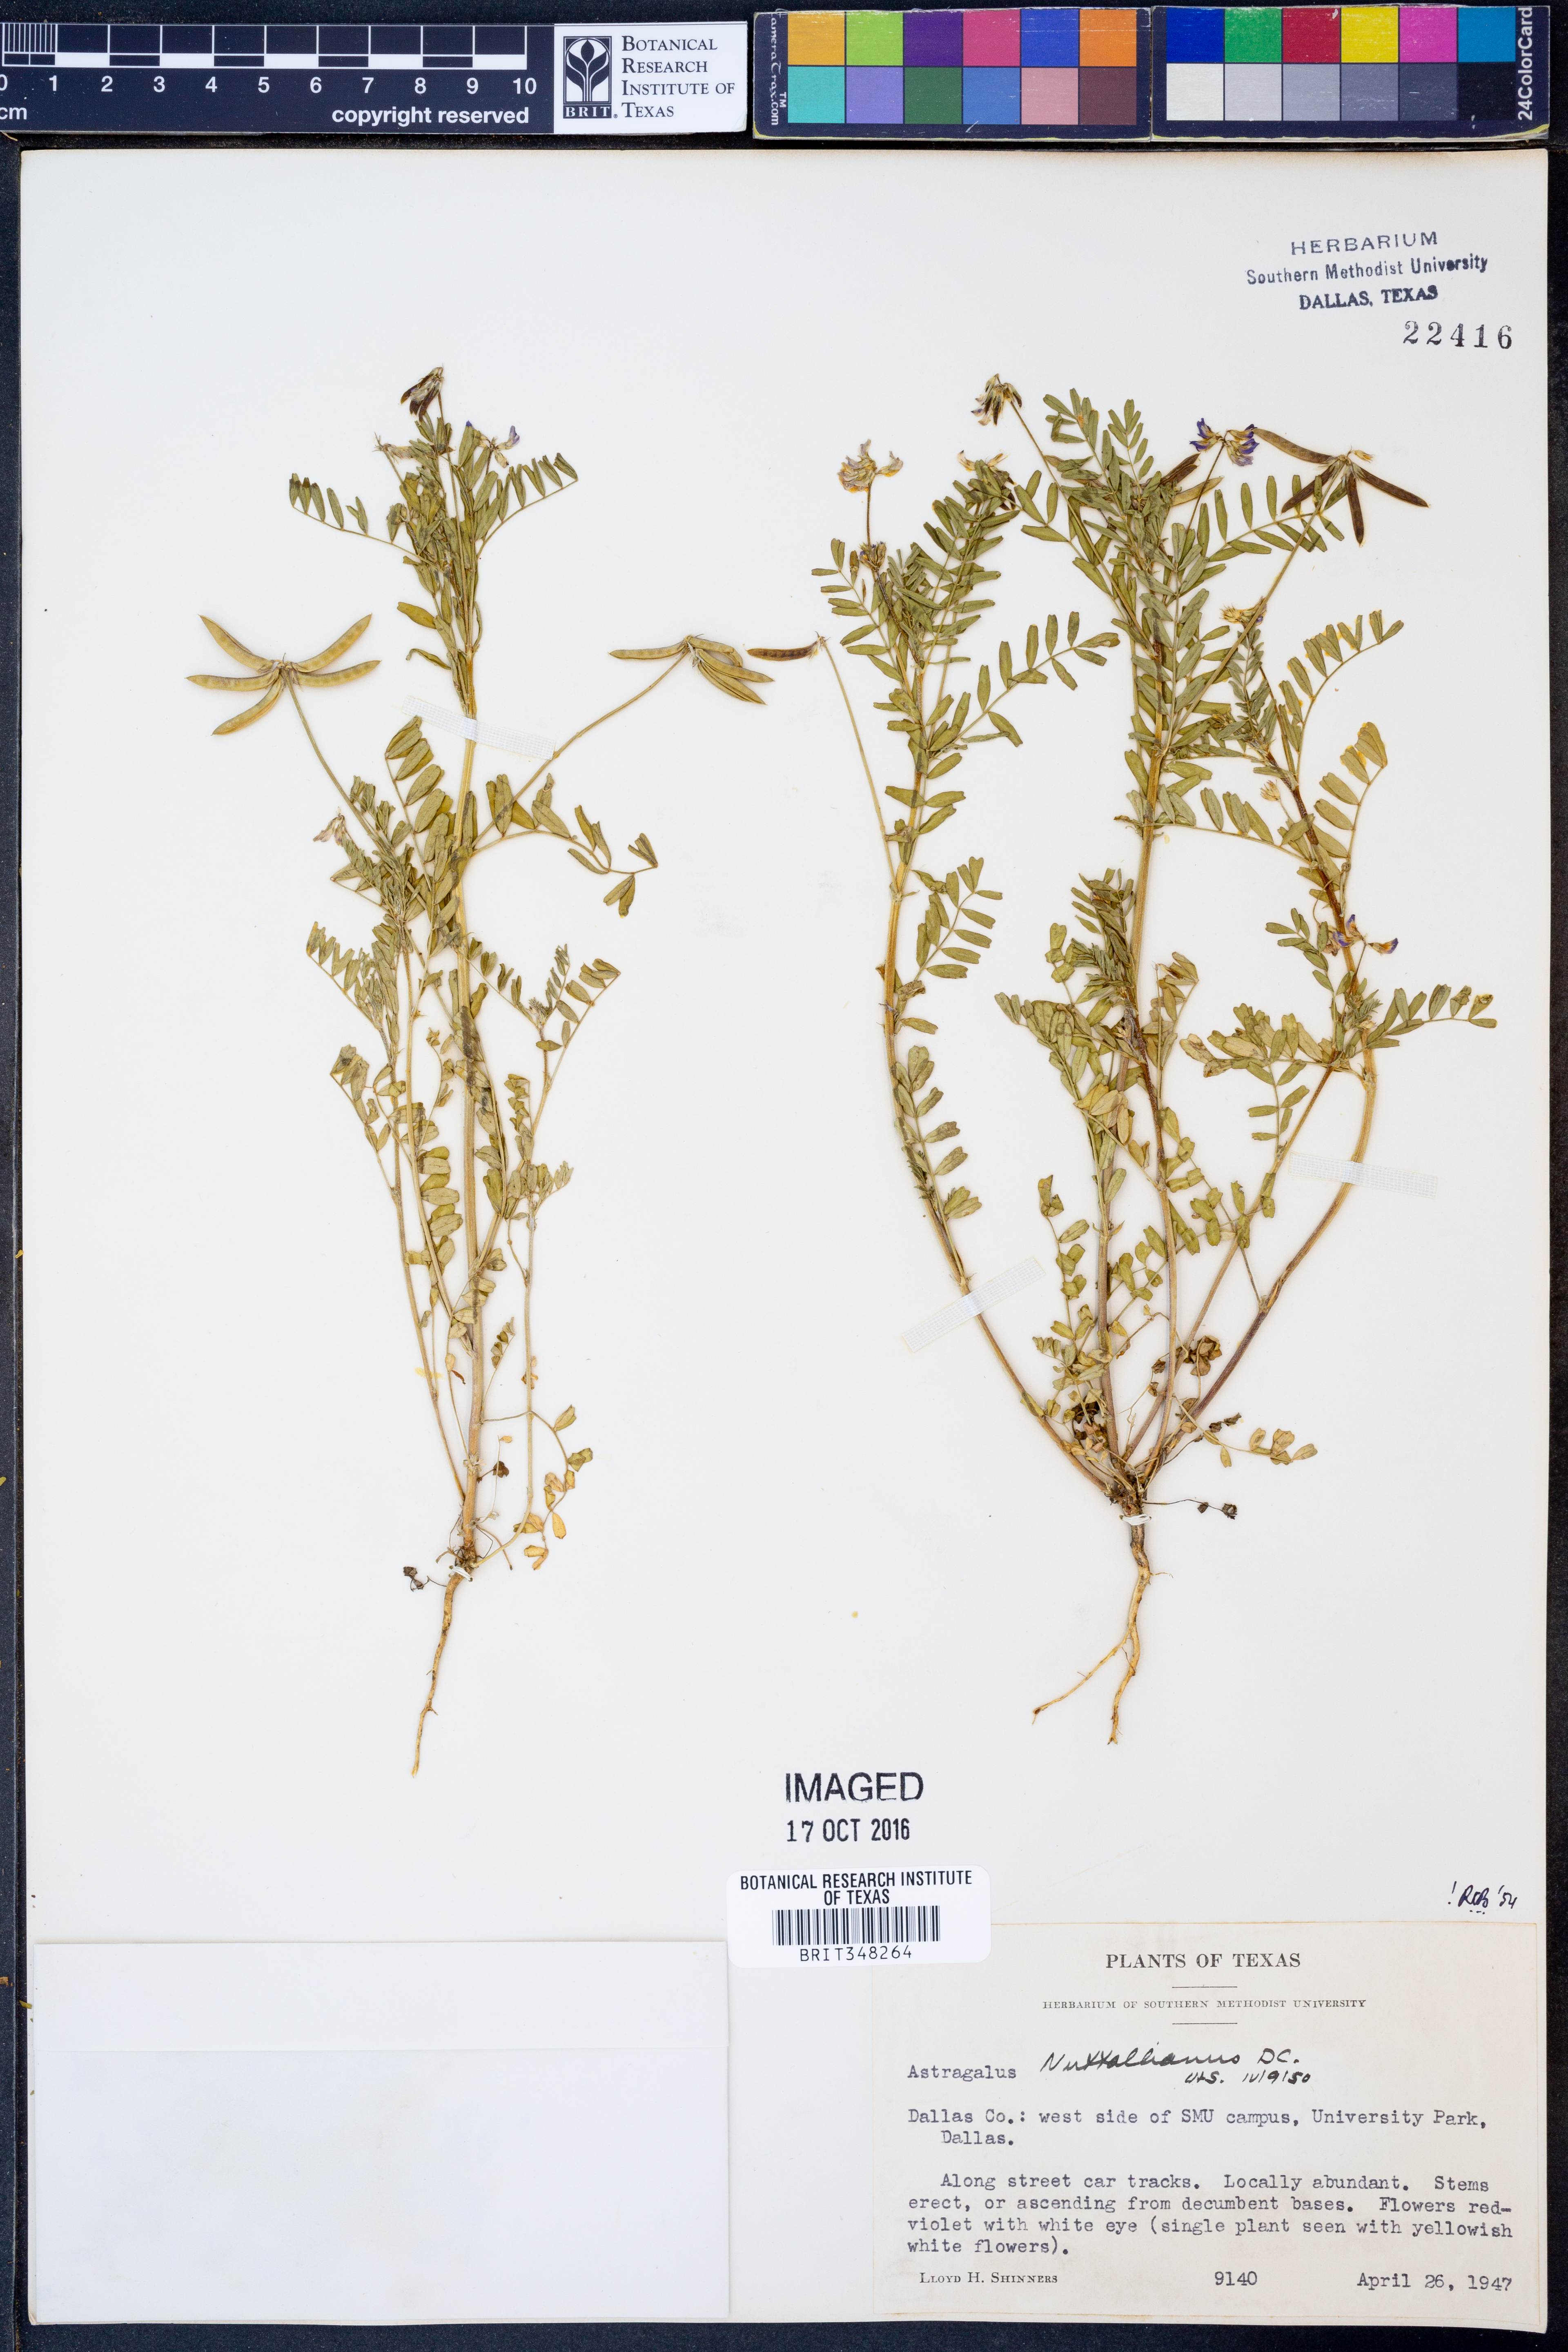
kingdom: Plantae
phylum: Tracheophyta
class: Magnoliopsida
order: Fabales
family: Fabaceae
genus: Astragalus
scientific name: Astragalus nuttallianus
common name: Smallflowered milkvetch
